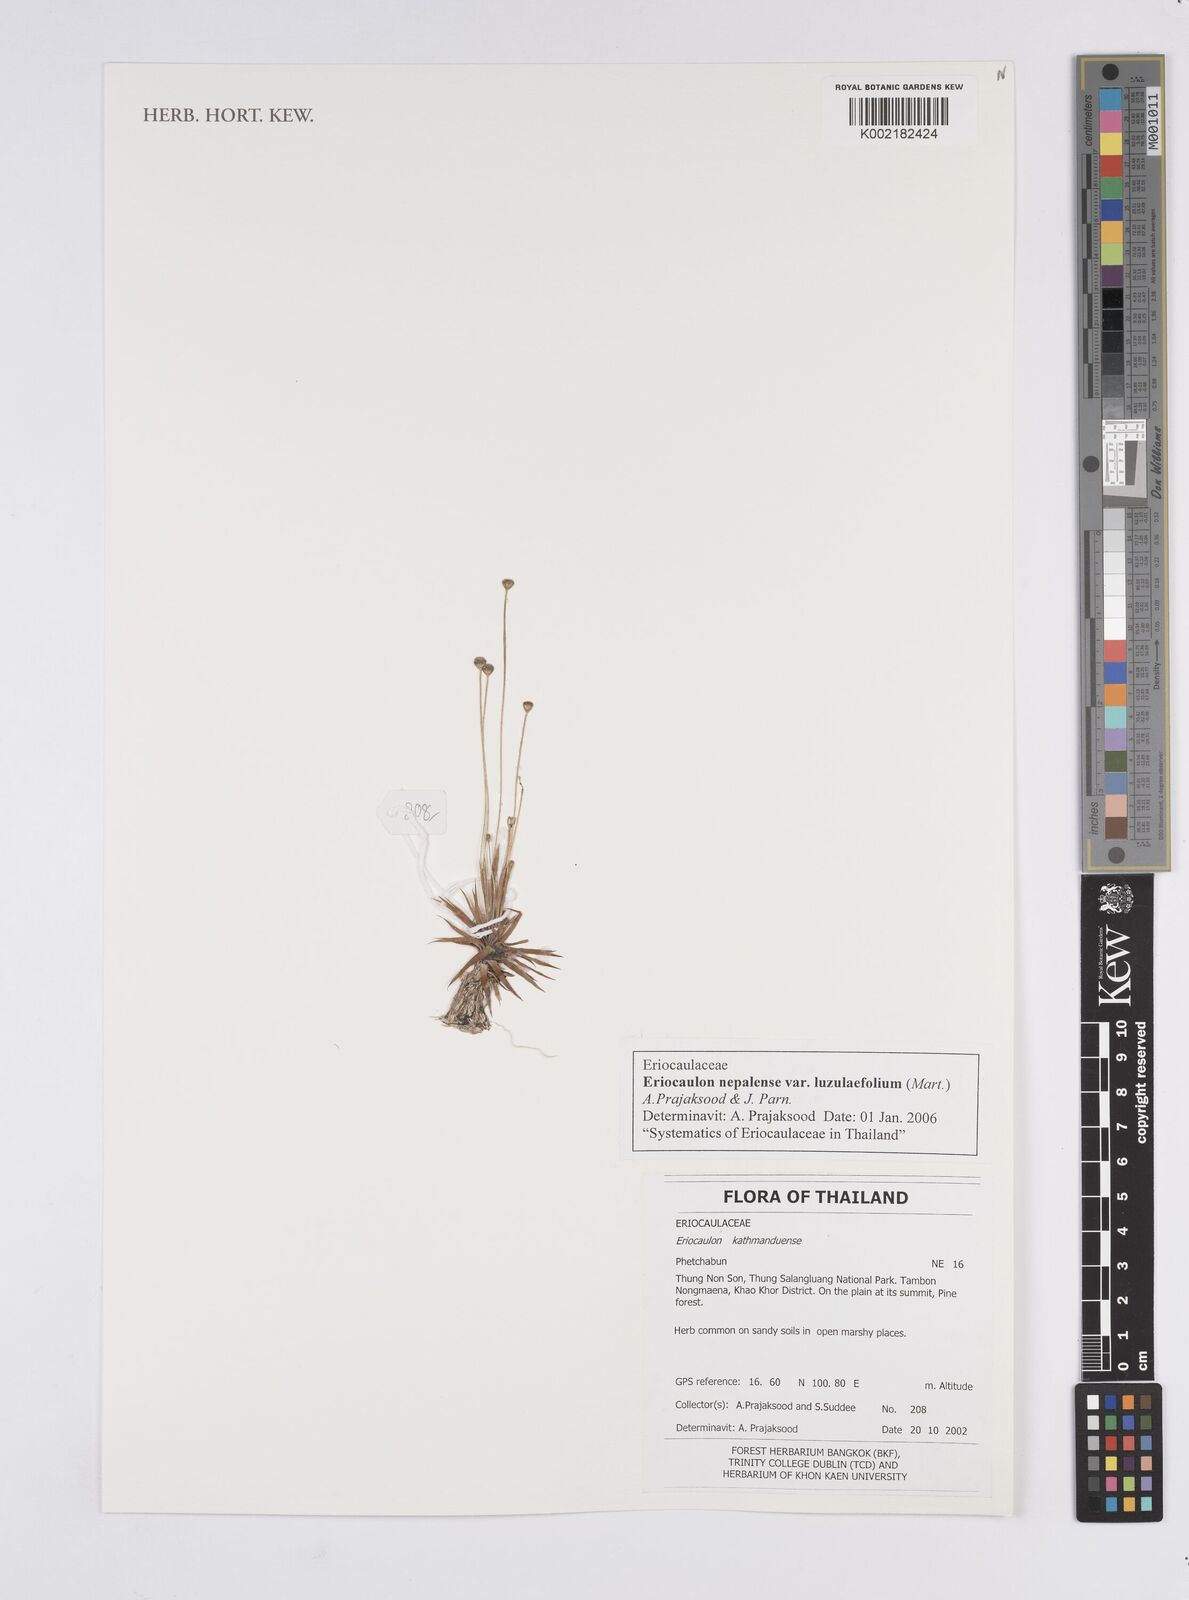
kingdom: Plantae
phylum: Tracheophyta
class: Liliopsida
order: Poales
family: Eriocaulaceae
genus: Eriocaulon
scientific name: Eriocaulon nepalense
